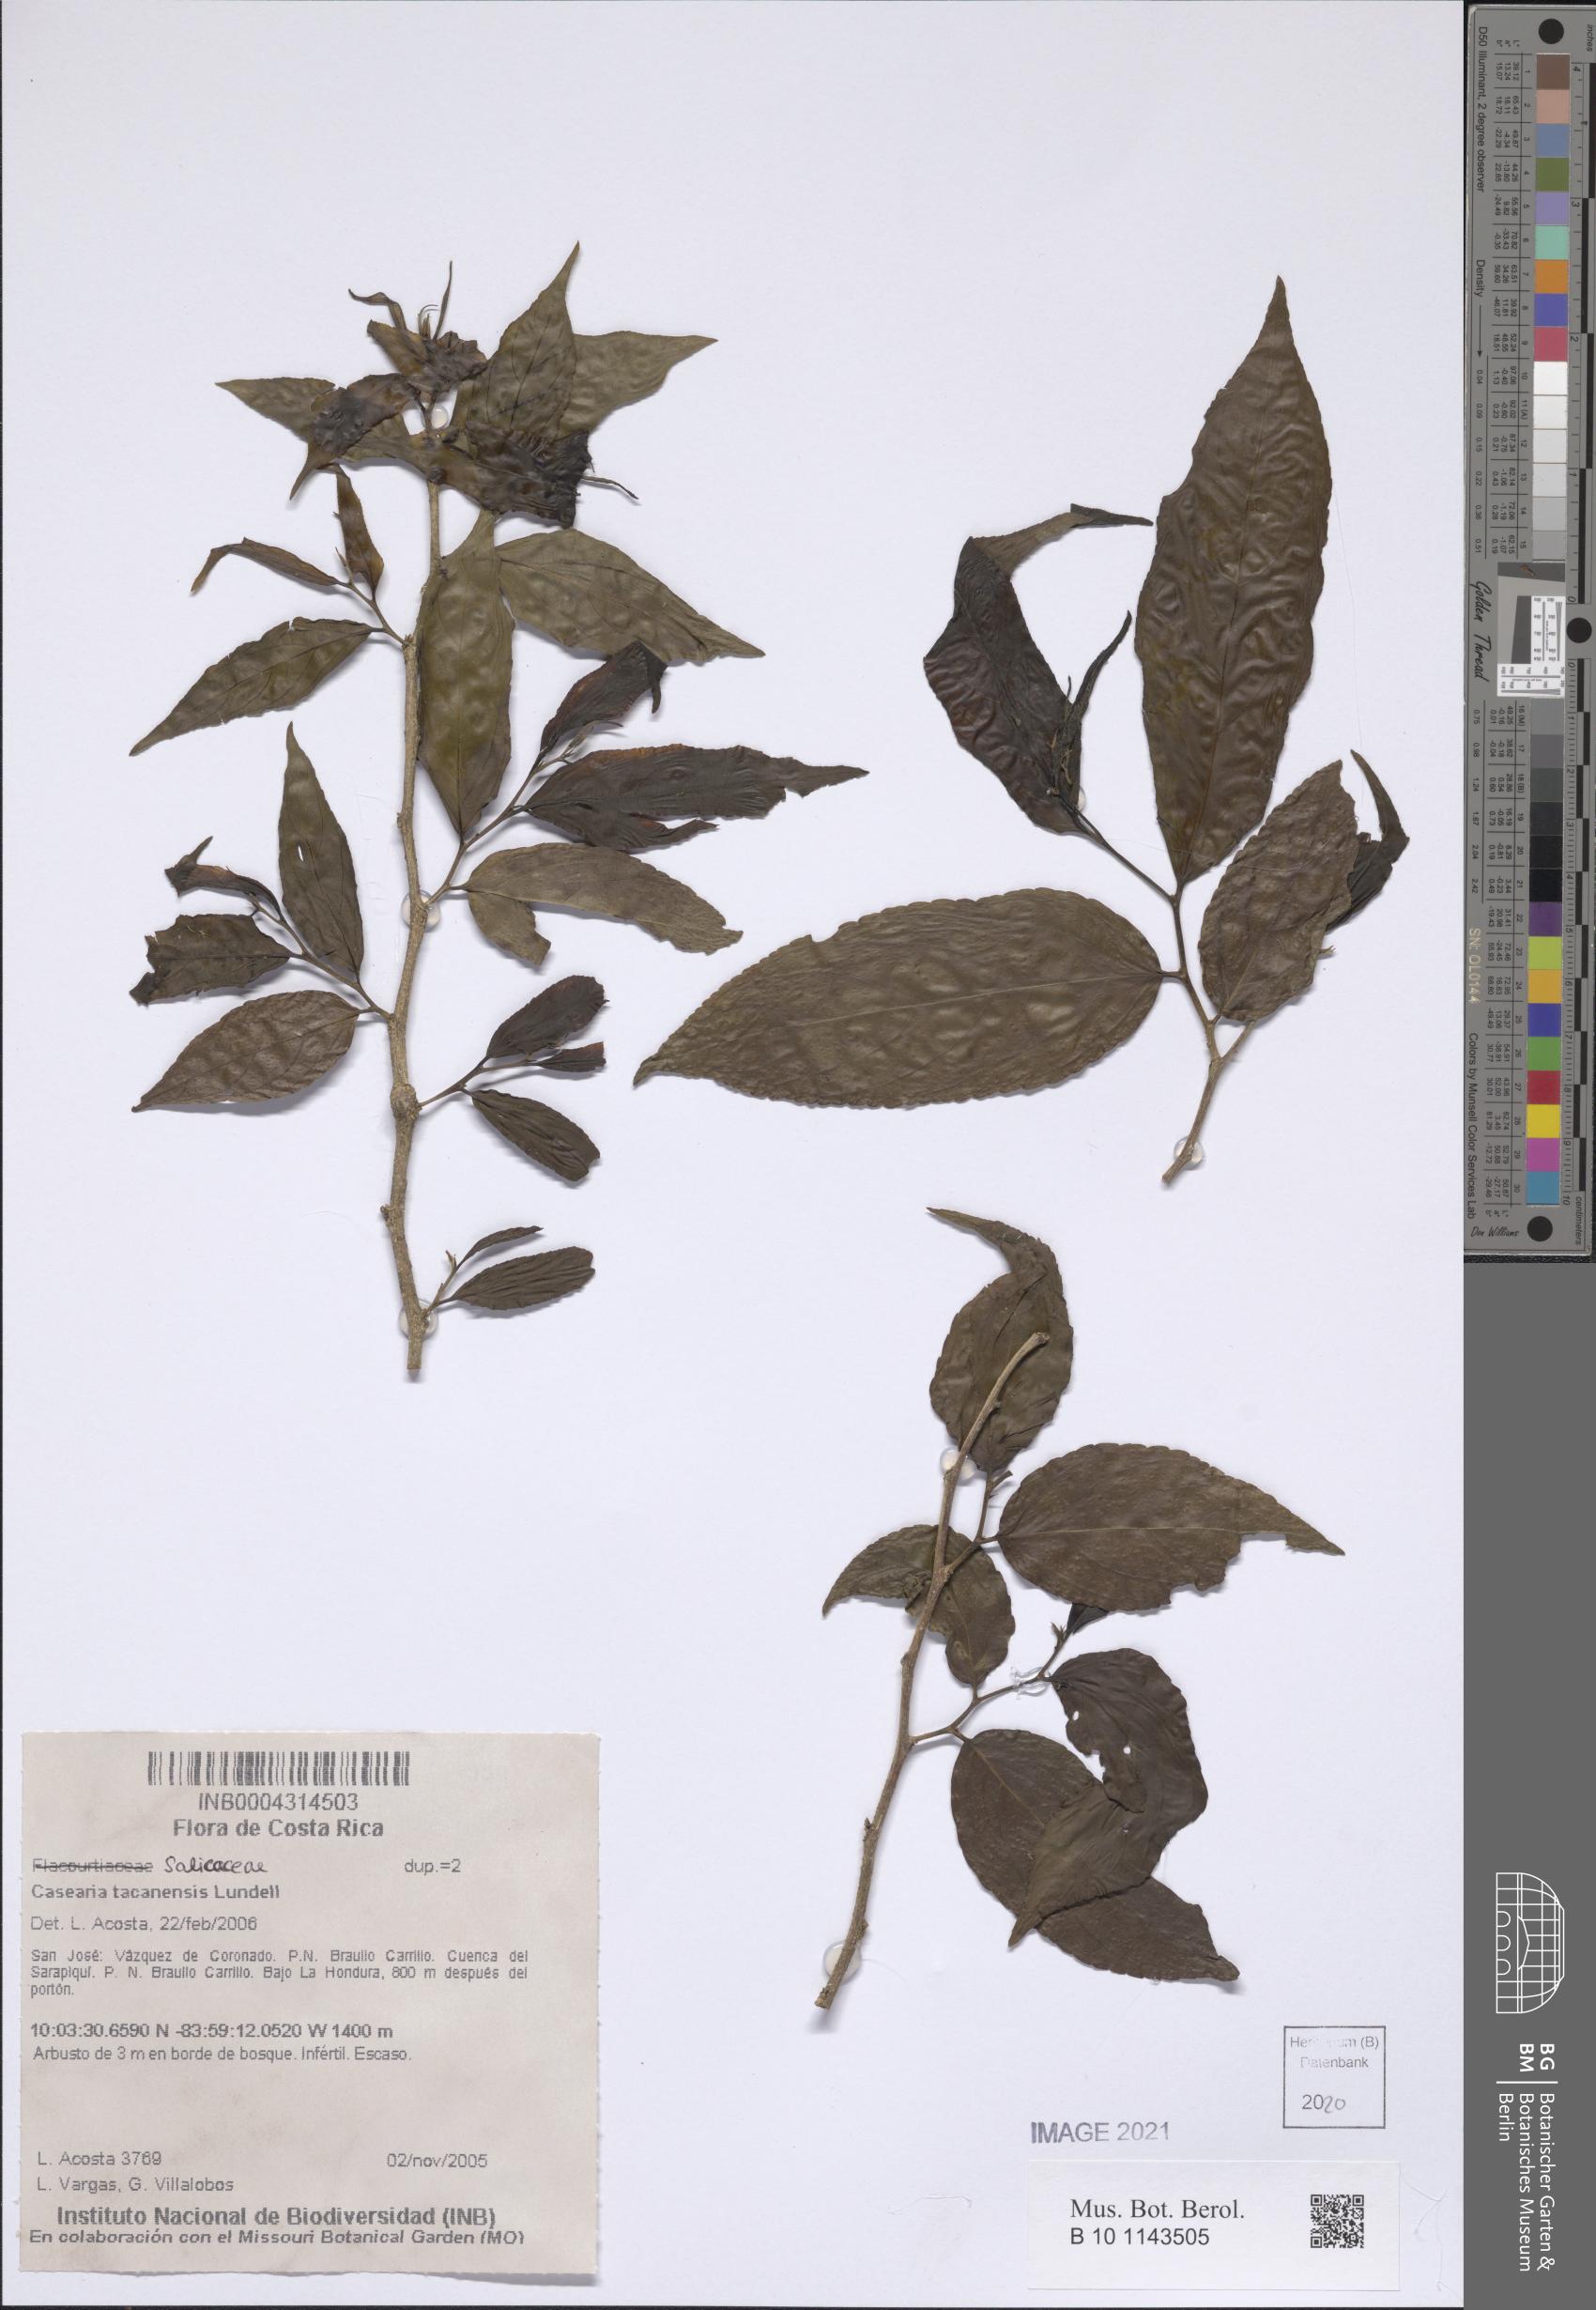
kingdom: Plantae
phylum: Tracheophyta
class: Magnoliopsida
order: Malpighiales
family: Salicaceae
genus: Casearia
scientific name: Casearia tacanensis
